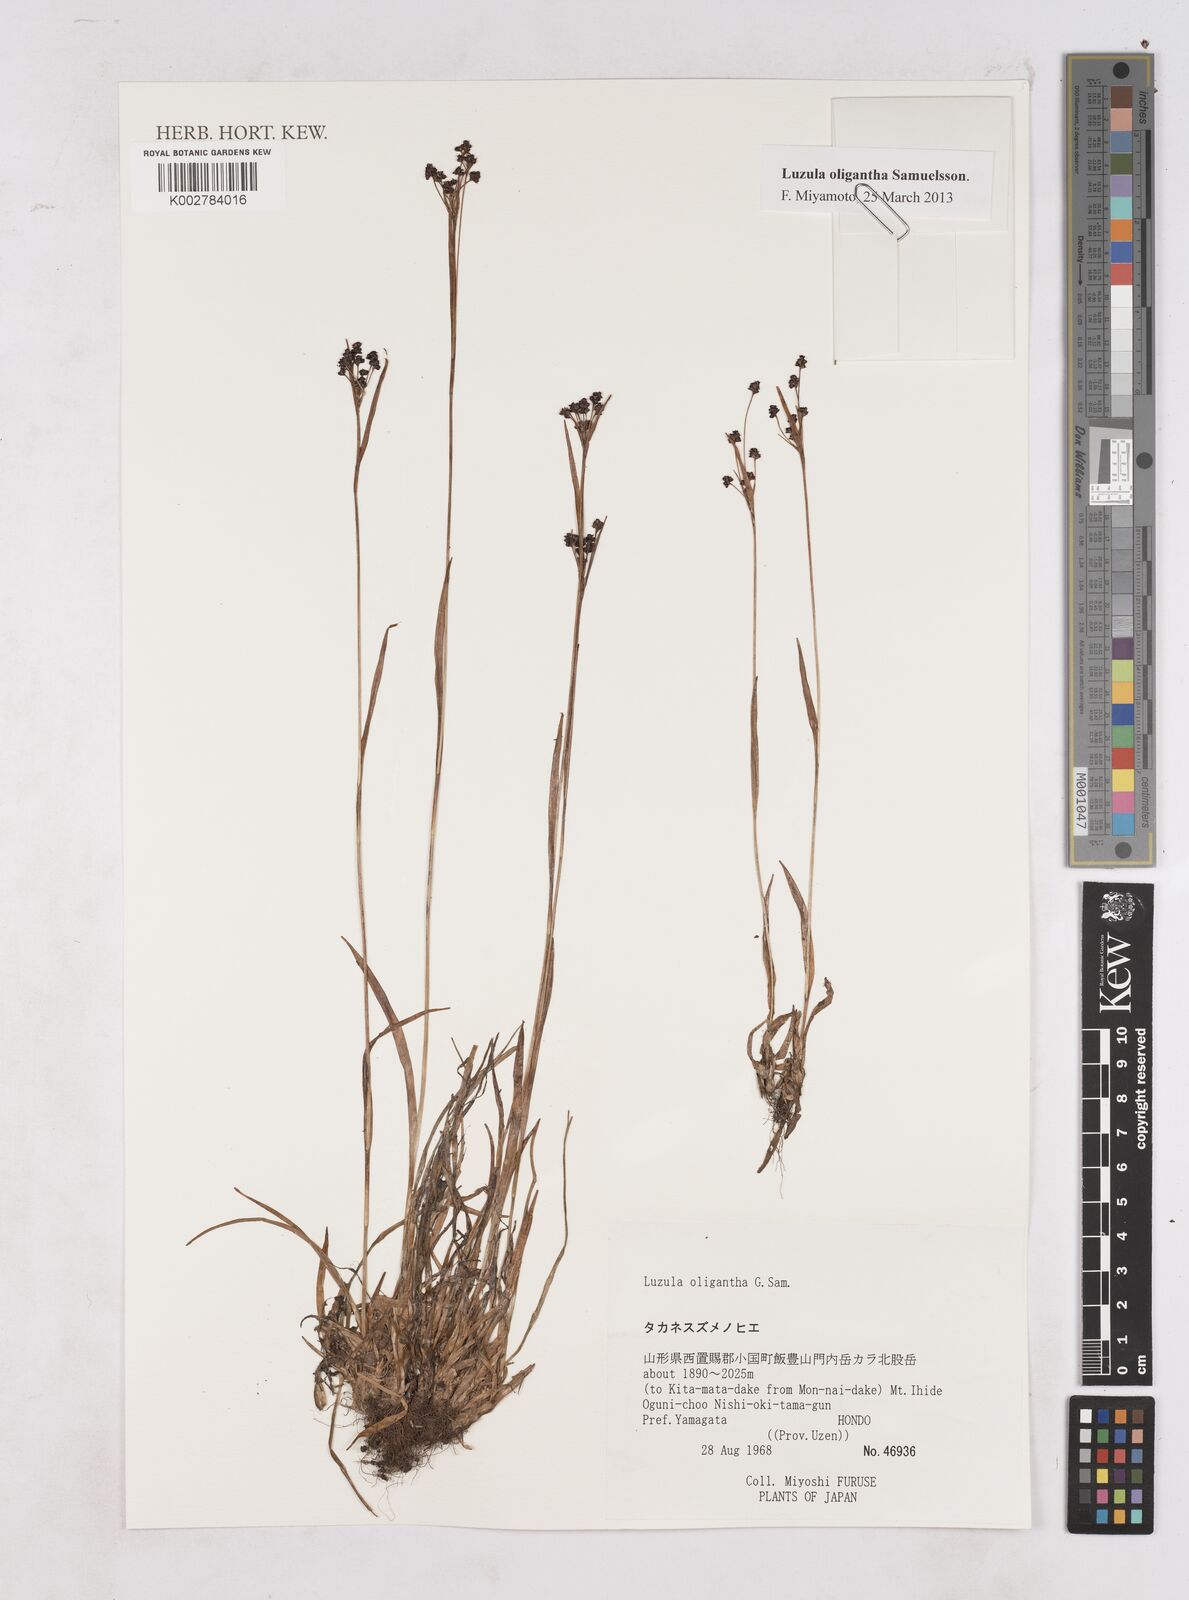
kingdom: Plantae
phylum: Tracheophyta
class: Liliopsida
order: Poales
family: Juncaceae
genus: Luzula
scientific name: Luzula oligantha
